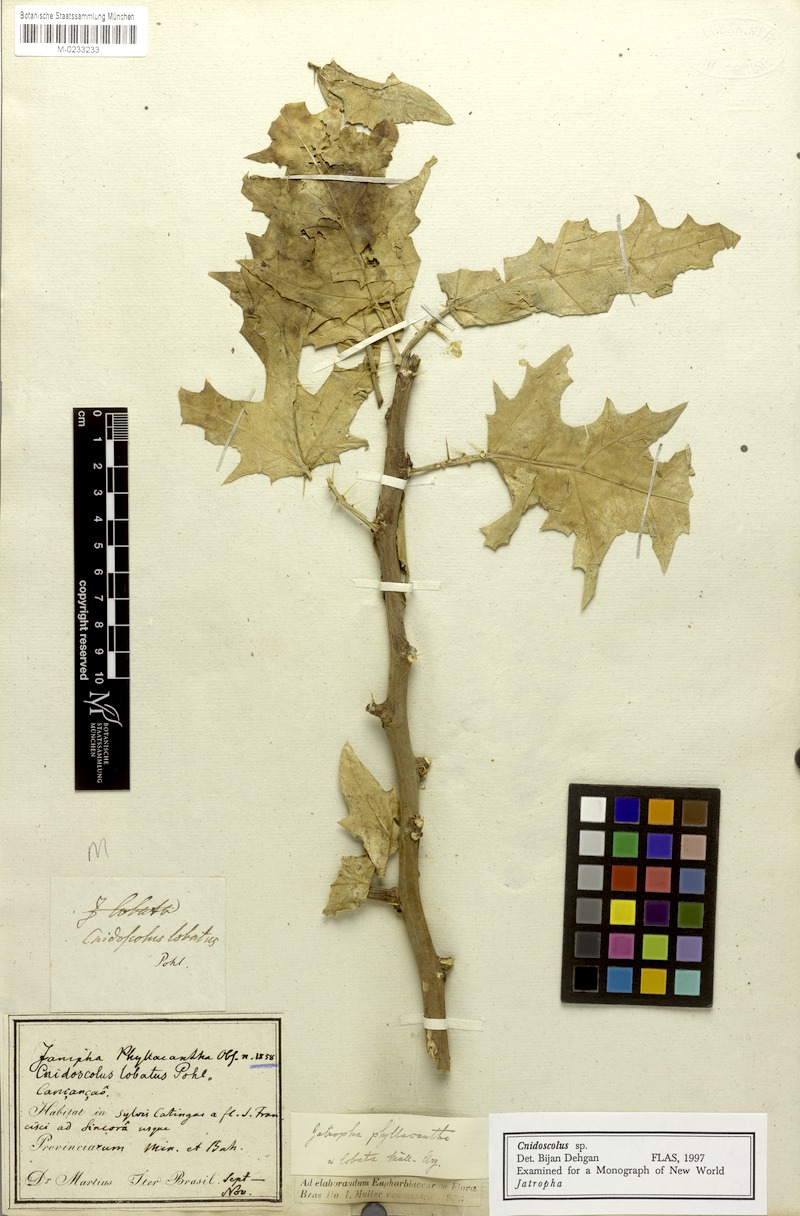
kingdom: Plantae
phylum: Tracheophyta
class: Magnoliopsida
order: Malpighiales
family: Euphorbiaceae
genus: Cnidoscolus
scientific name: Cnidoscolus quercifolius
